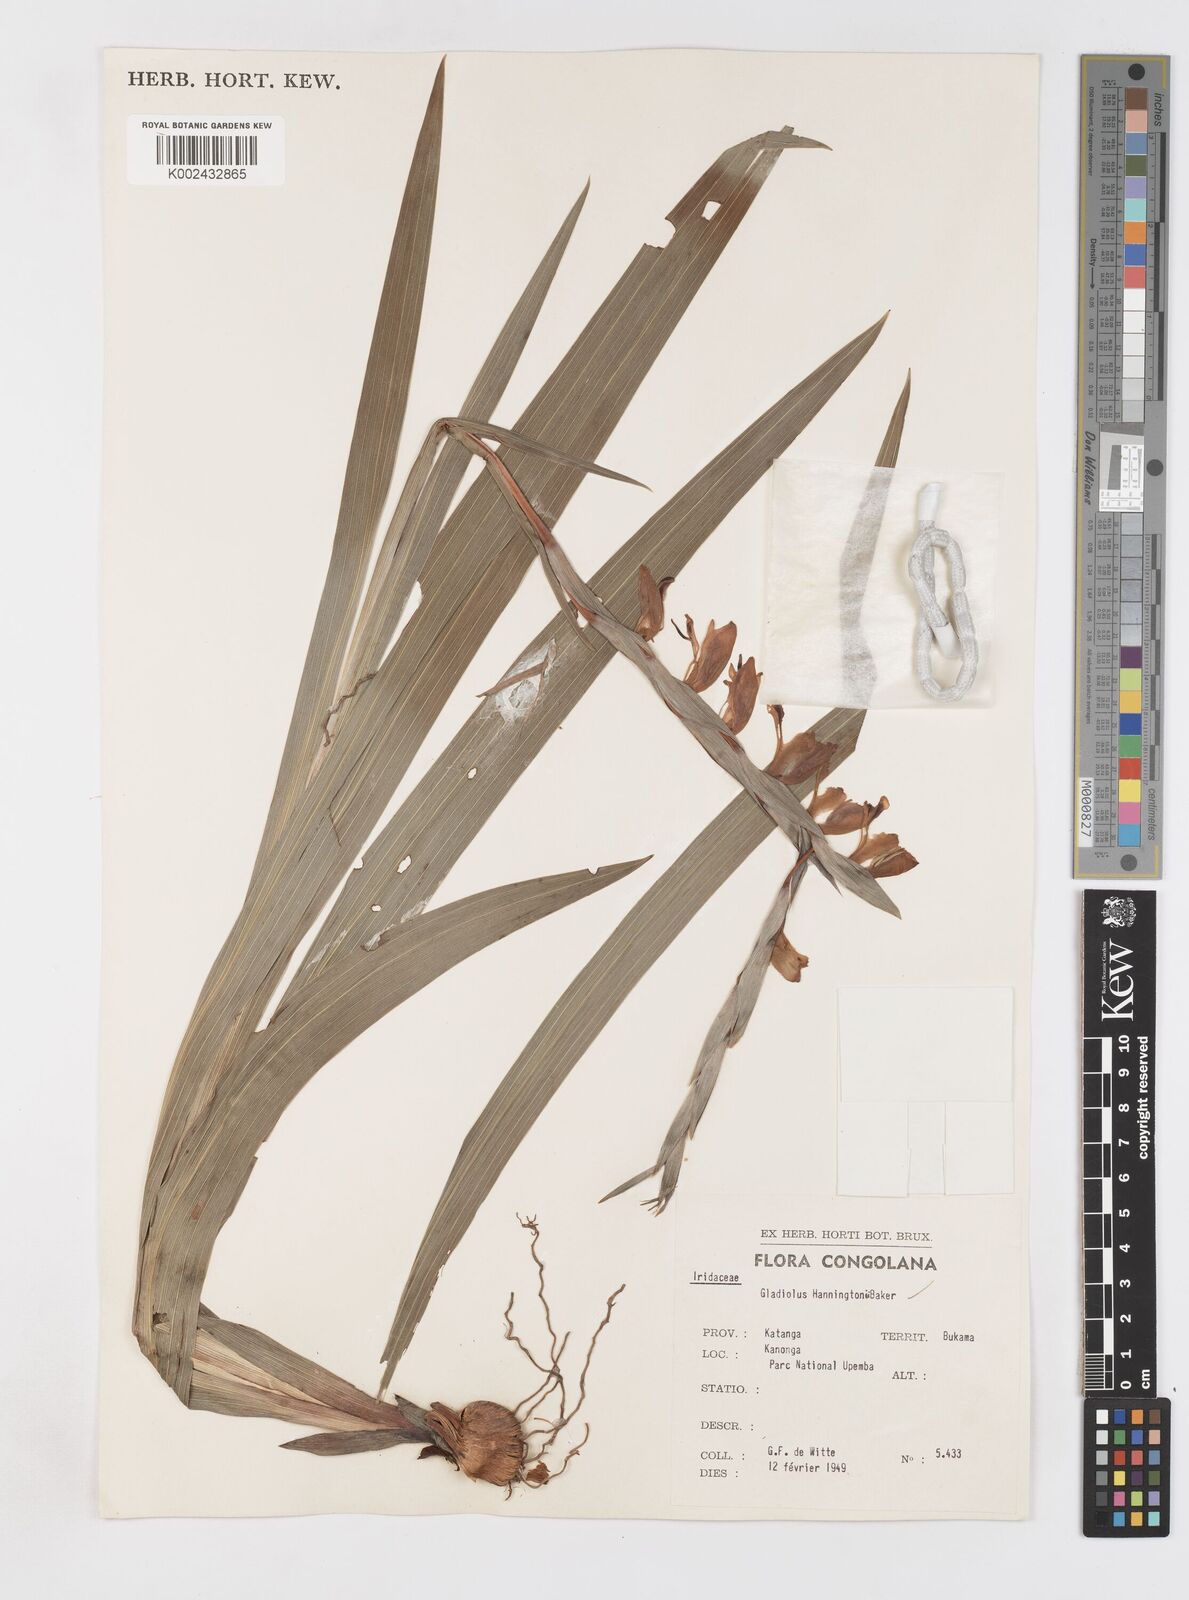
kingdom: Plantae
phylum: Tracheophyta
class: Liliopsida
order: Asparagales
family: Iridaceae
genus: Gladiolus
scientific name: Gladiolus gregarius
